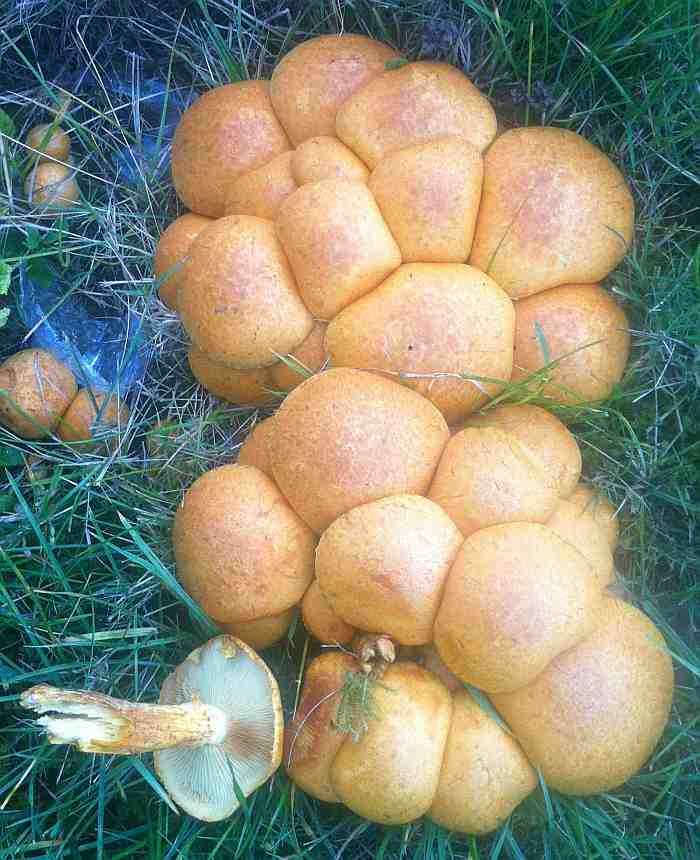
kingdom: Fungi
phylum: Basidiomycota
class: Agaricomycetes
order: Agaricales
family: Hymenogastraceae
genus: Gymnopilus
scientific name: Gymnopilus spectabilis
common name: fibret flammehat
